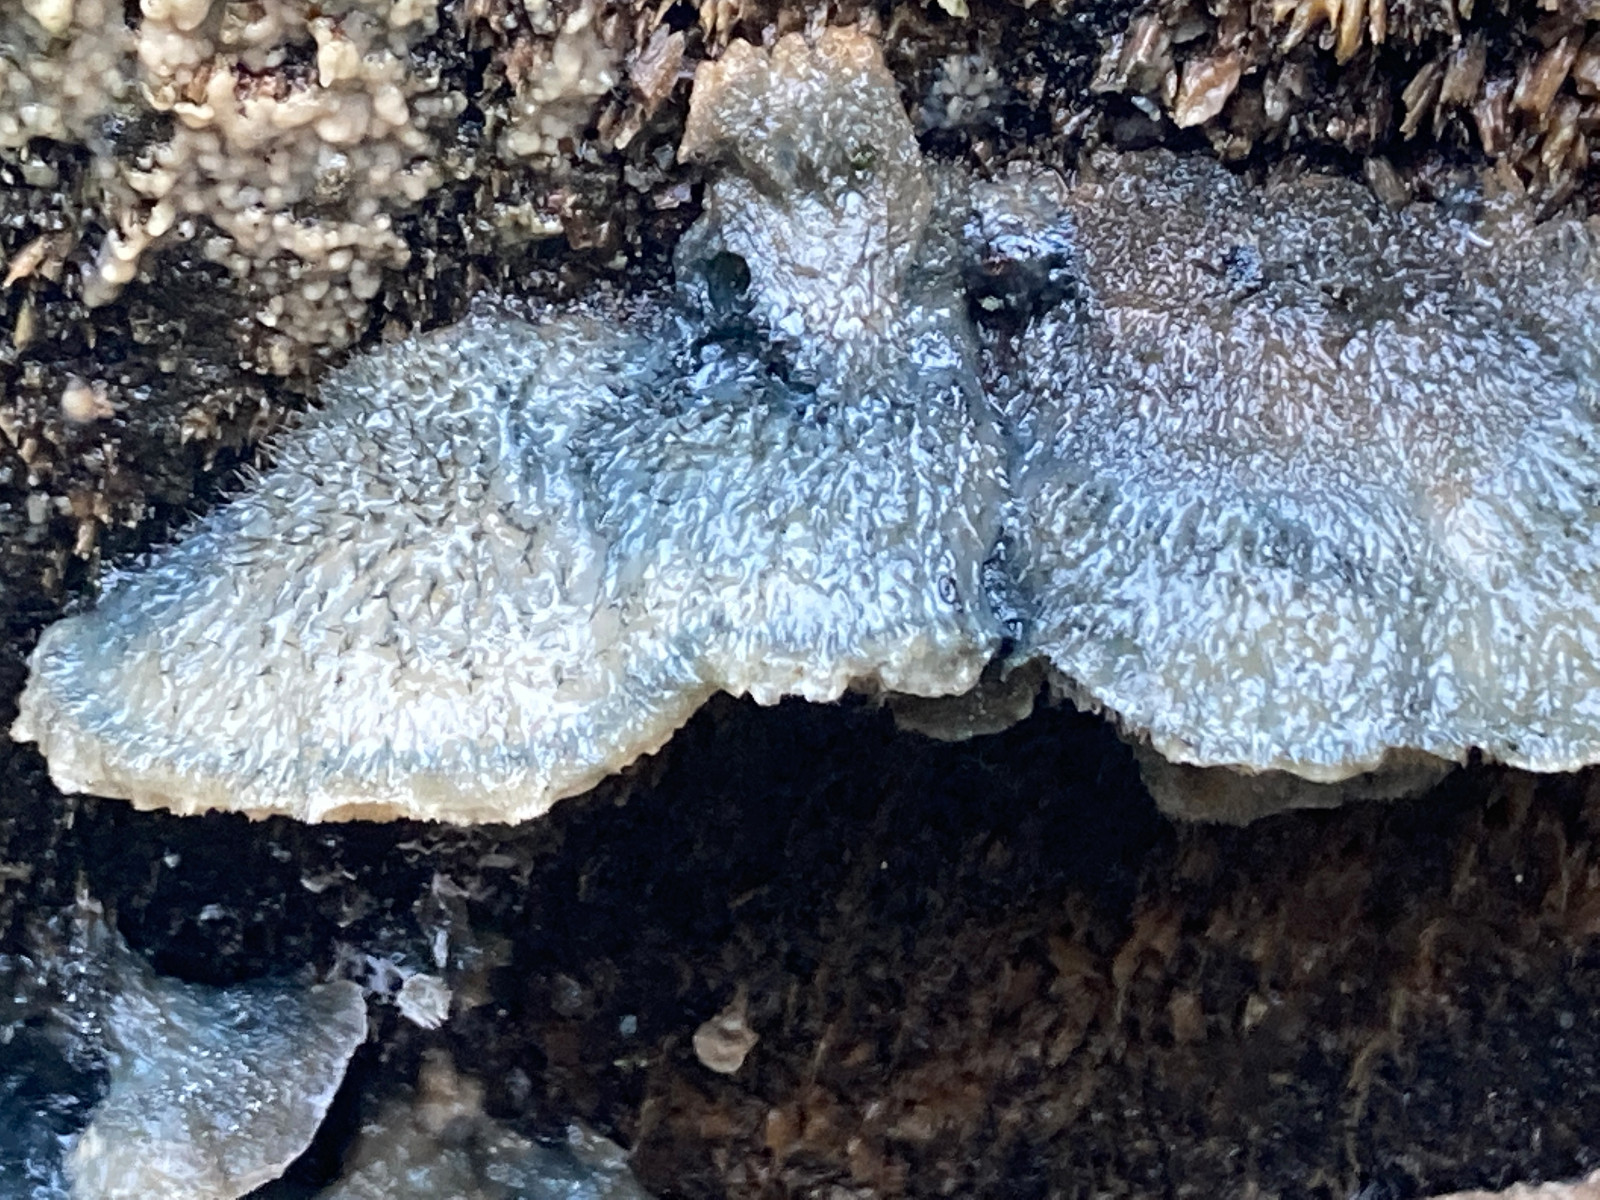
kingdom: Fungi
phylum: Basidiomycota
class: Agaricomycetes
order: Polyporales
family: Polyporaceae
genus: Cyanosporus
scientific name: Cyanosporus caesius
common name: blålig kødporesvamp
